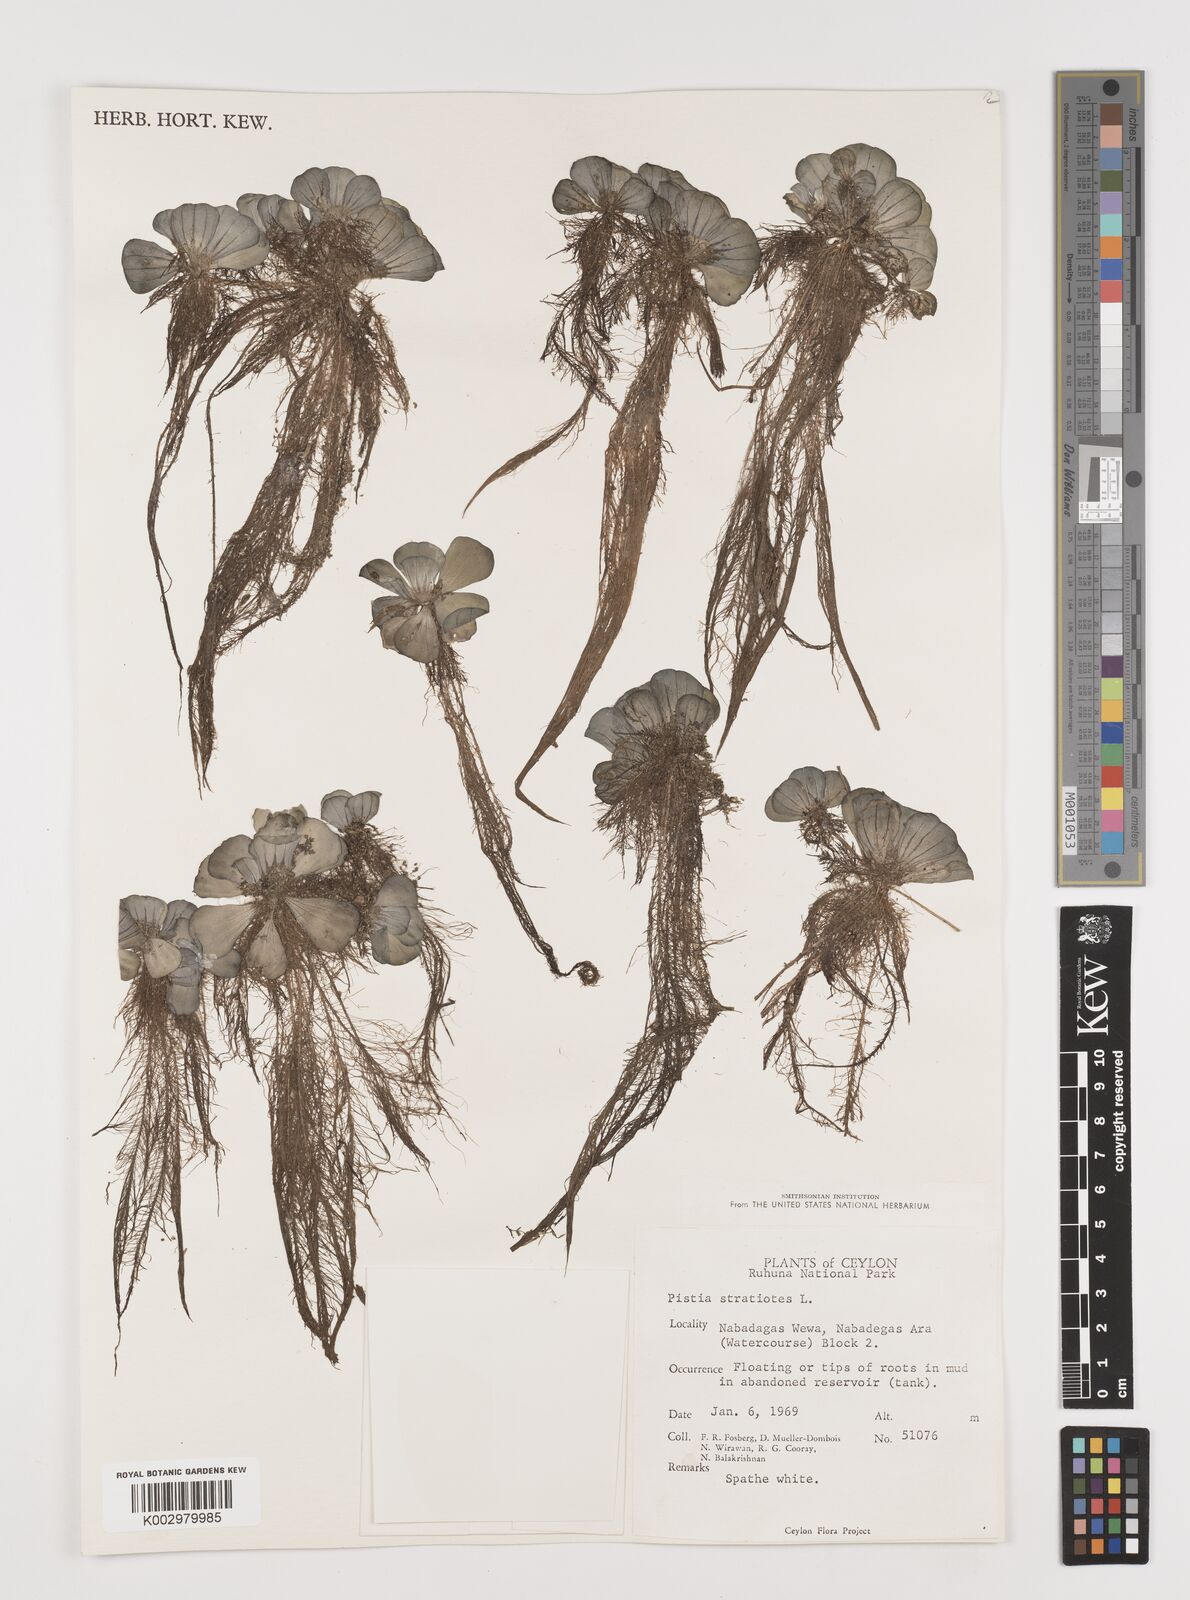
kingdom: Plantae
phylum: Tracheophyta
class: Liliopsida
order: Alismatales
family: Araceae
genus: Pistia
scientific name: Pistia stratiotes
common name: Water lettuce
